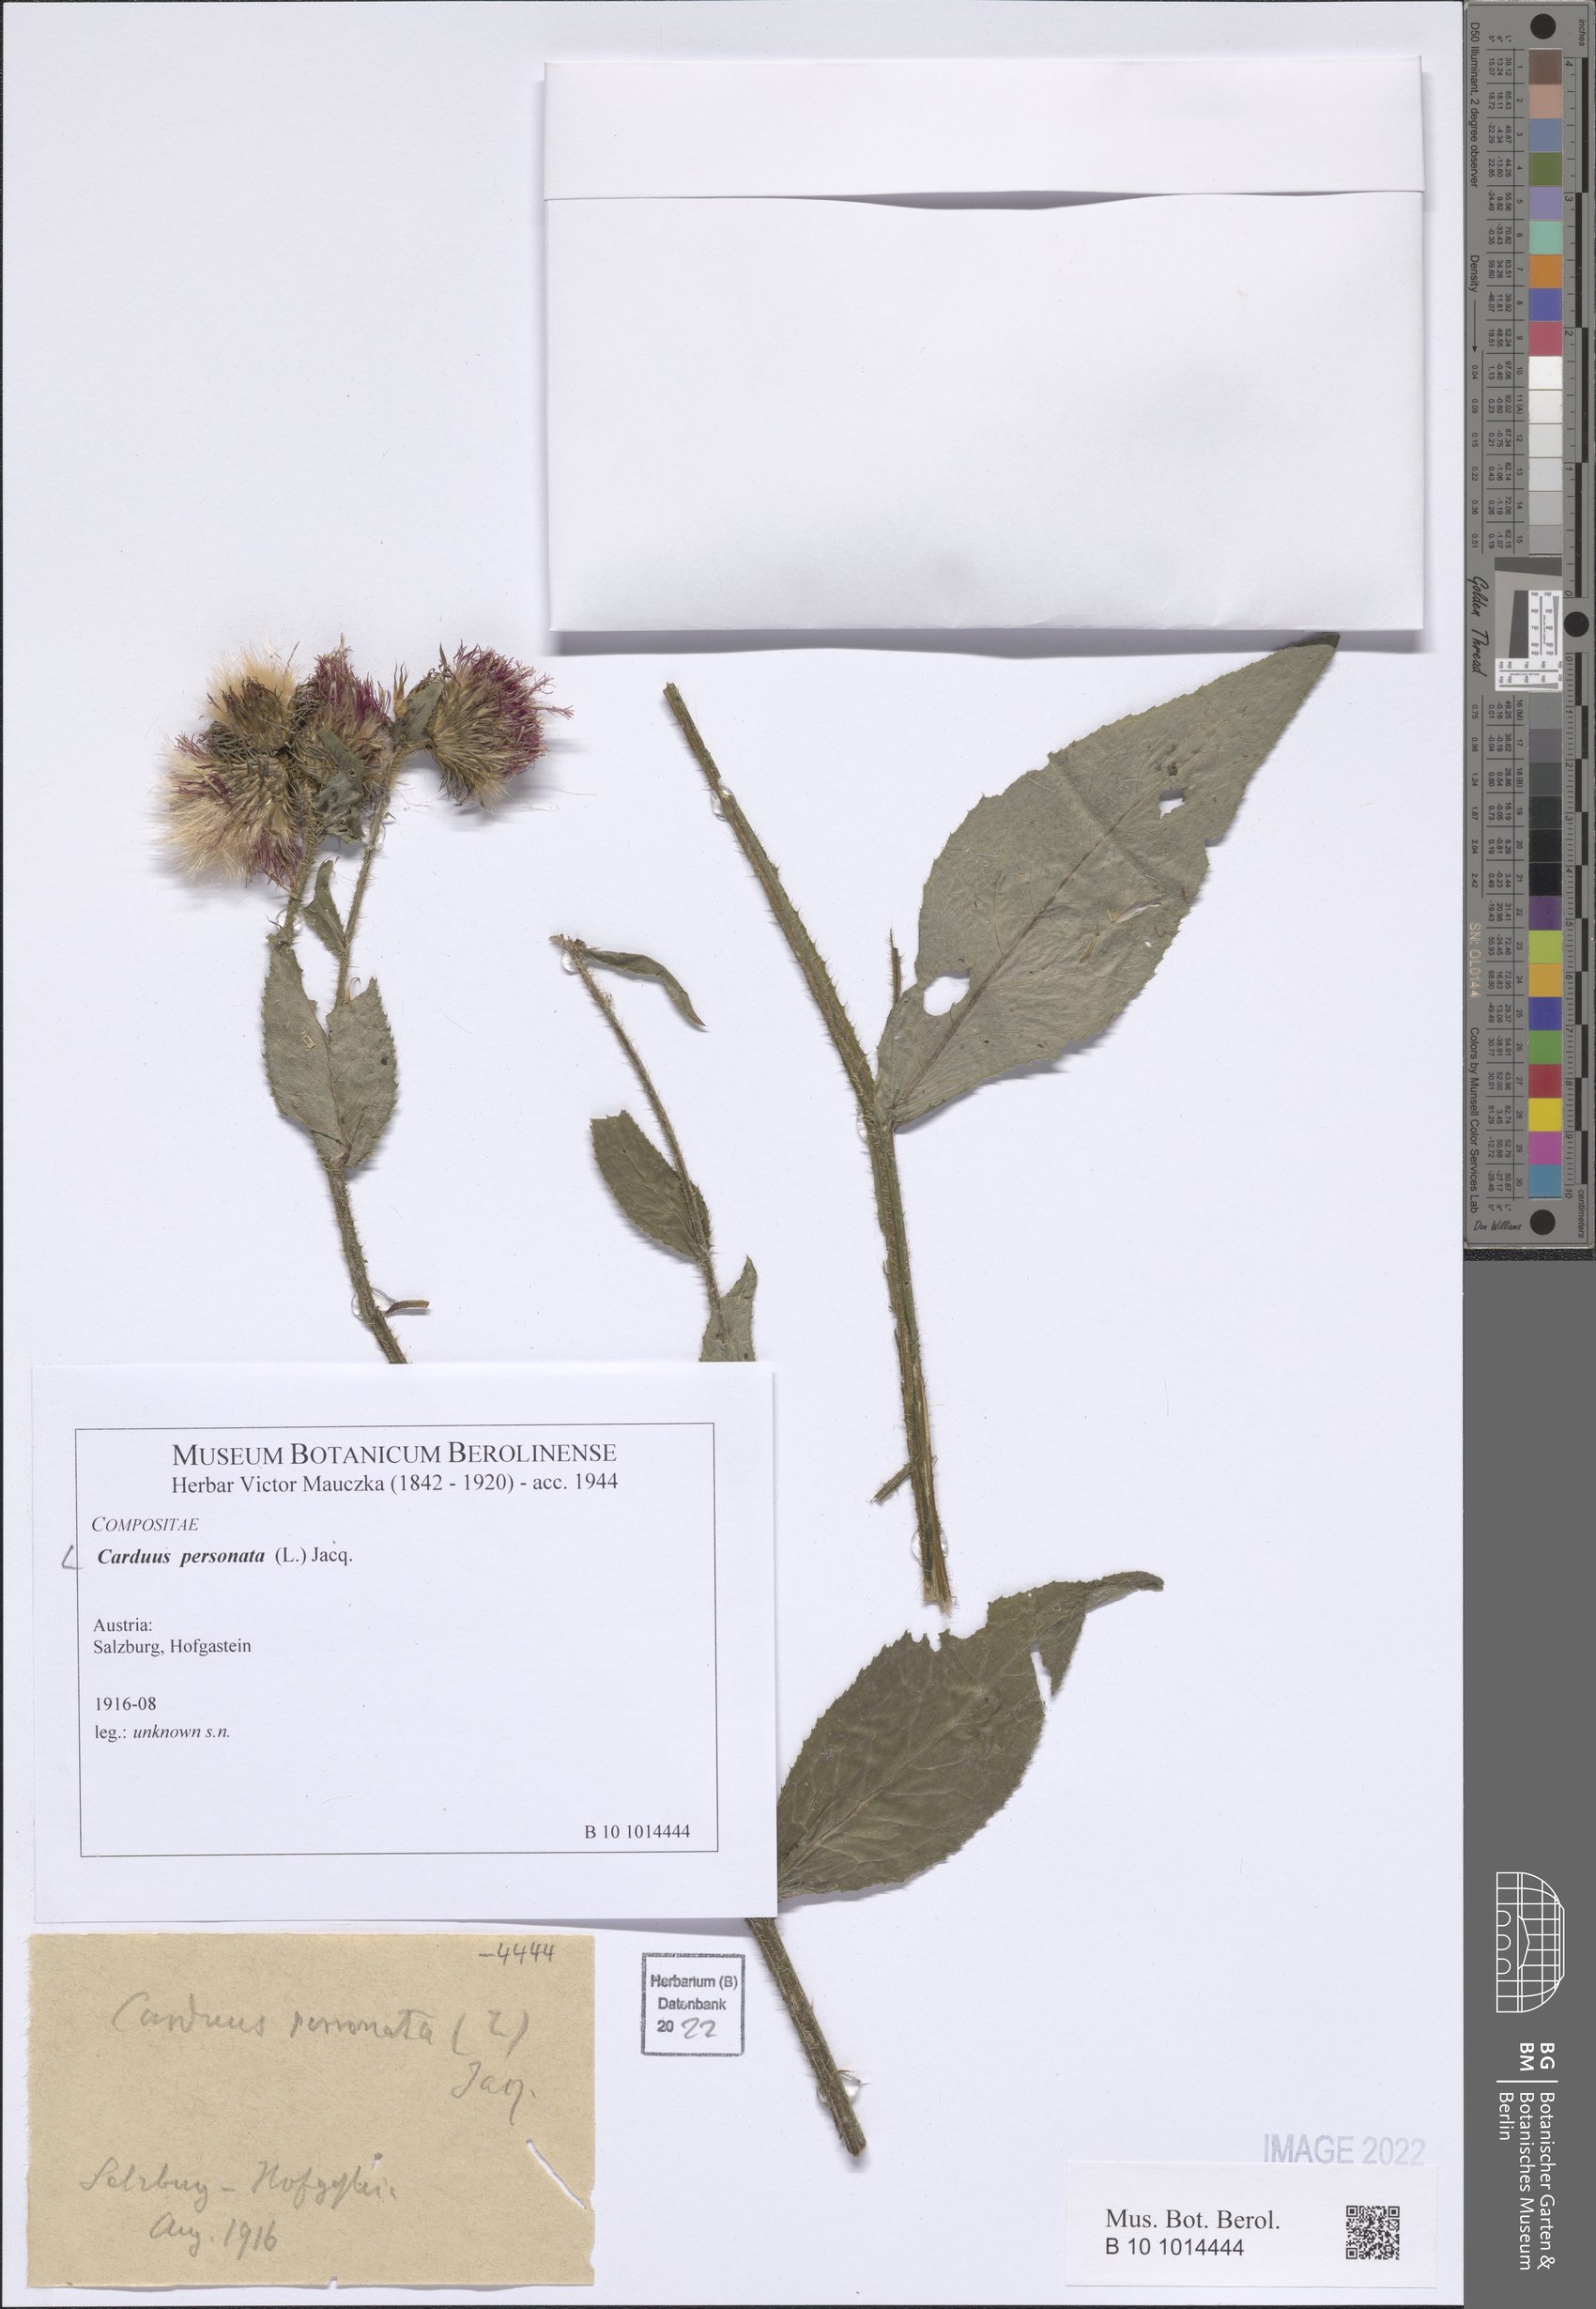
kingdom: Plantae
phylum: Tracheophyta
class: Magnoliopsida
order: Asterales
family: Asteraceae
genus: Carduus
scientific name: Carduus personata
